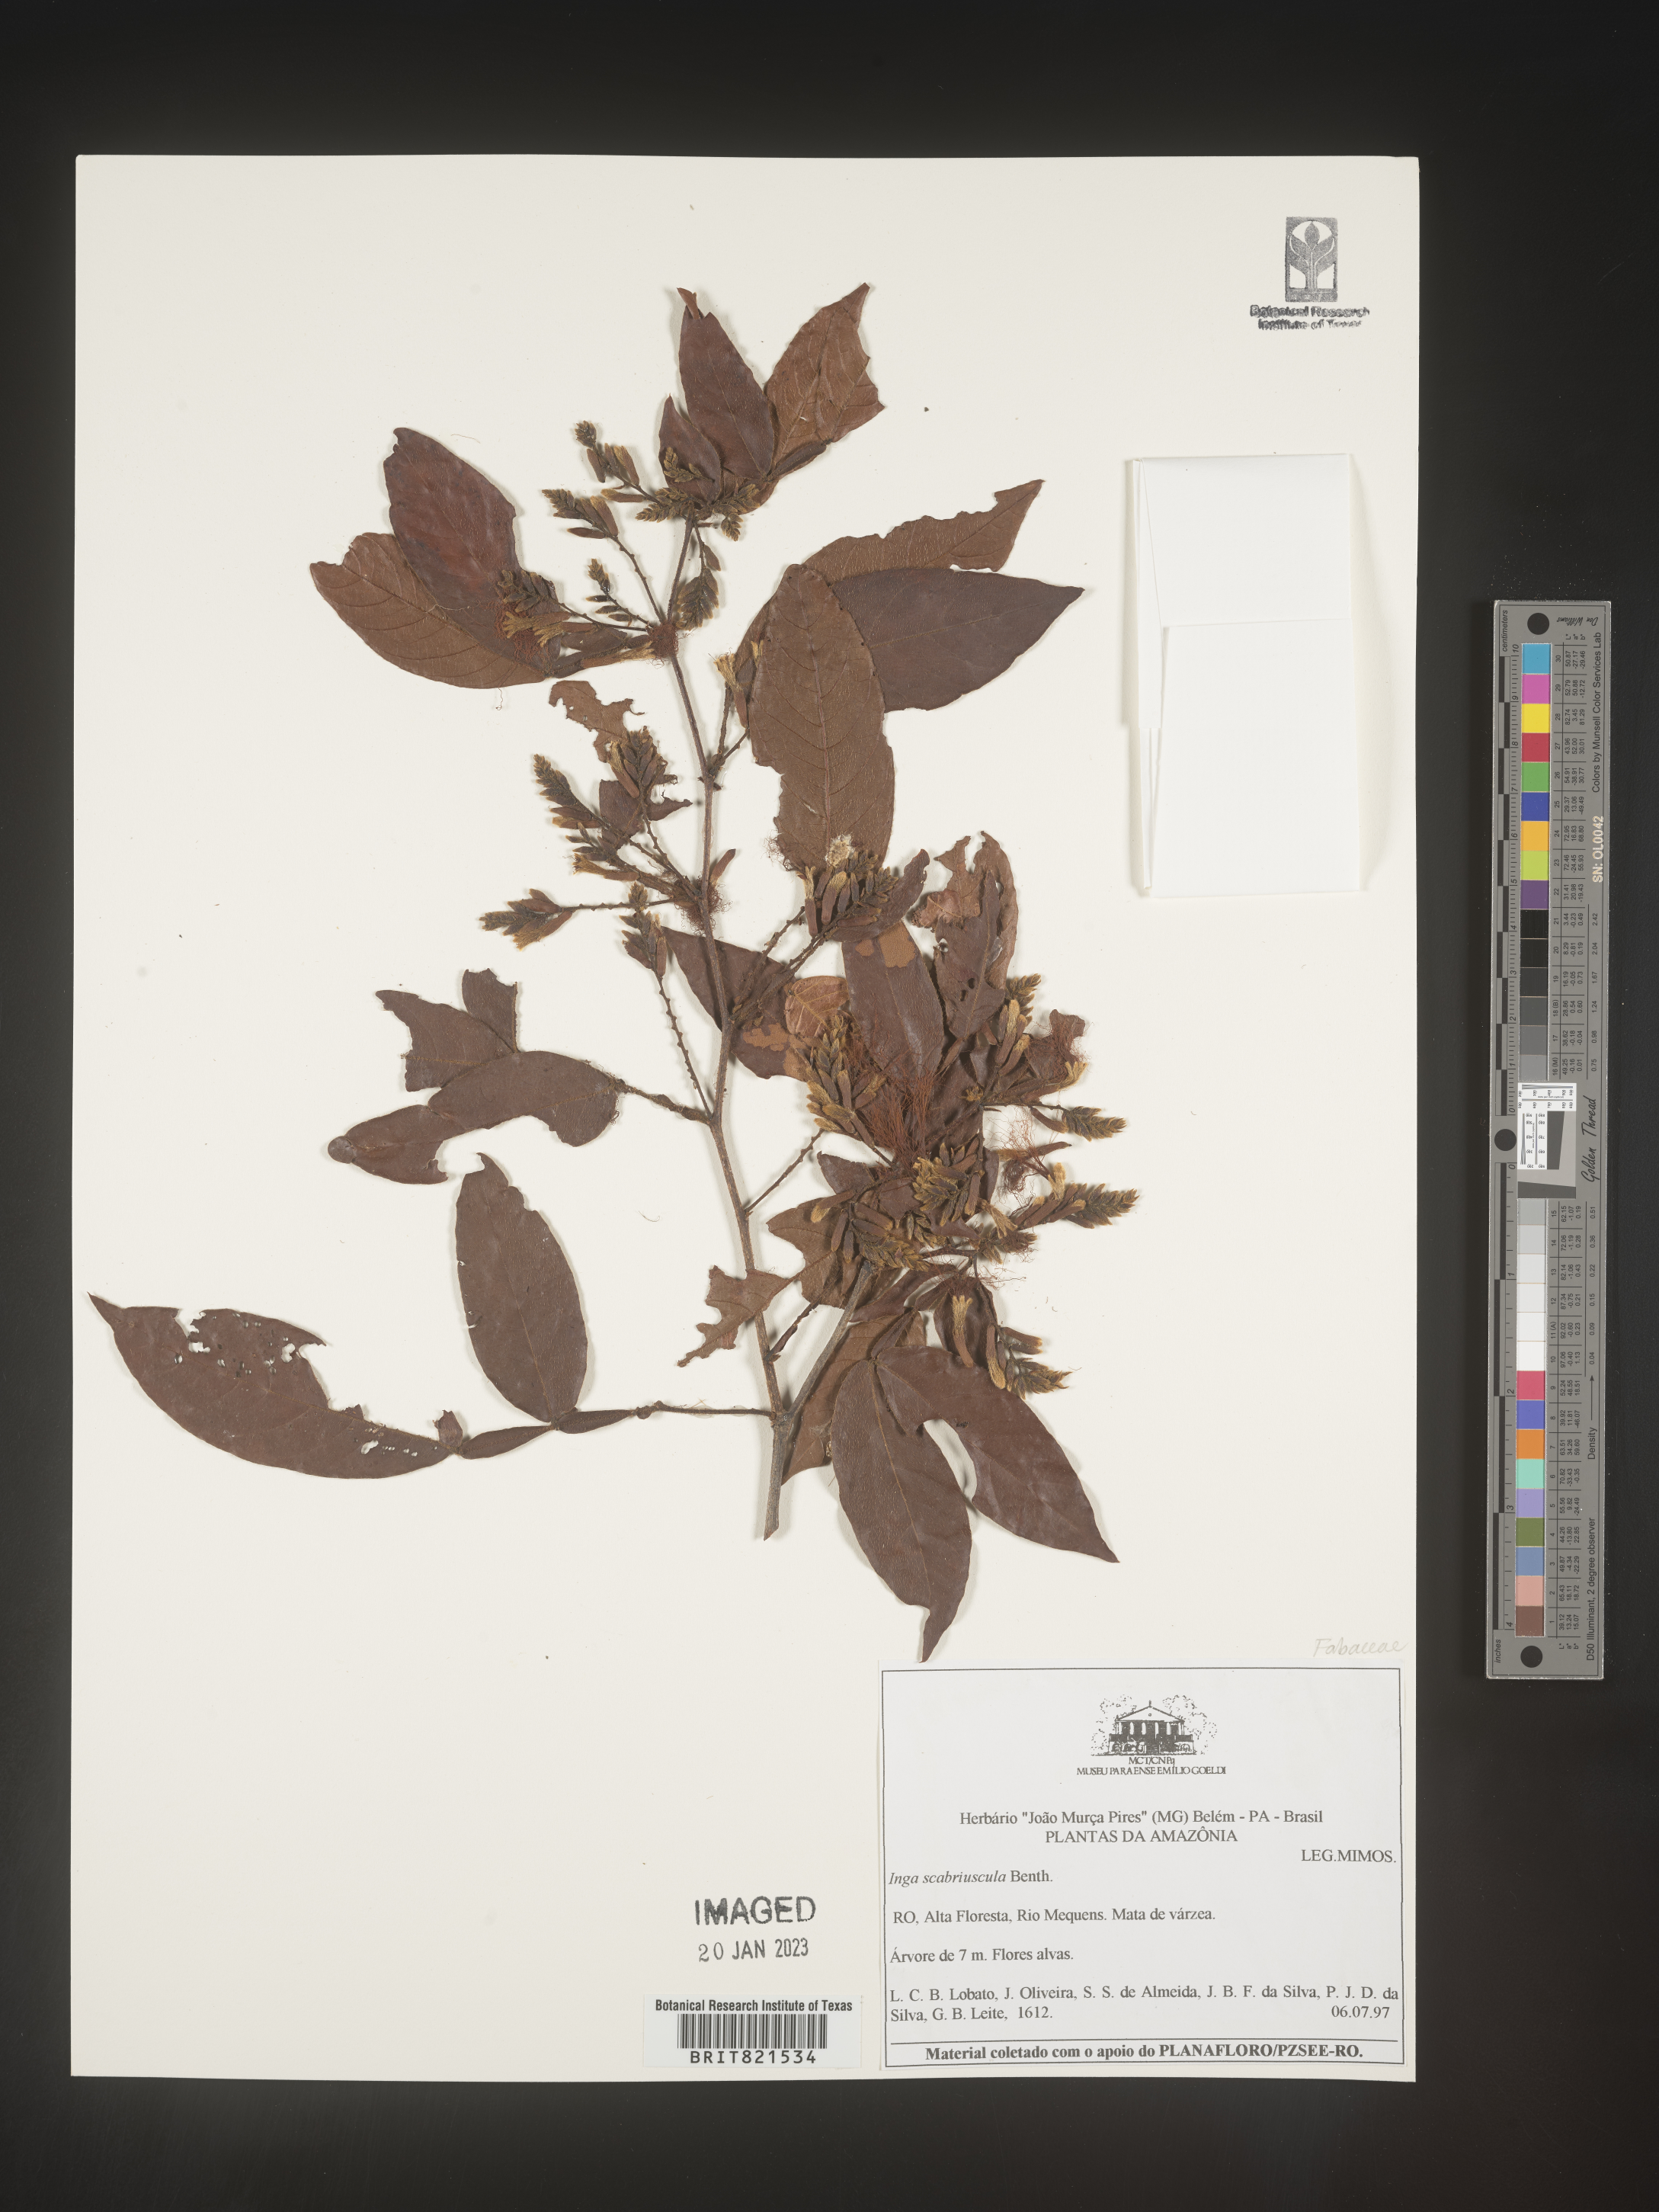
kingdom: Plantae
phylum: Tracheophyta
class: Magnoliopsida
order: Fabales
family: Fabaceae
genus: Inga
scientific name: Inga
